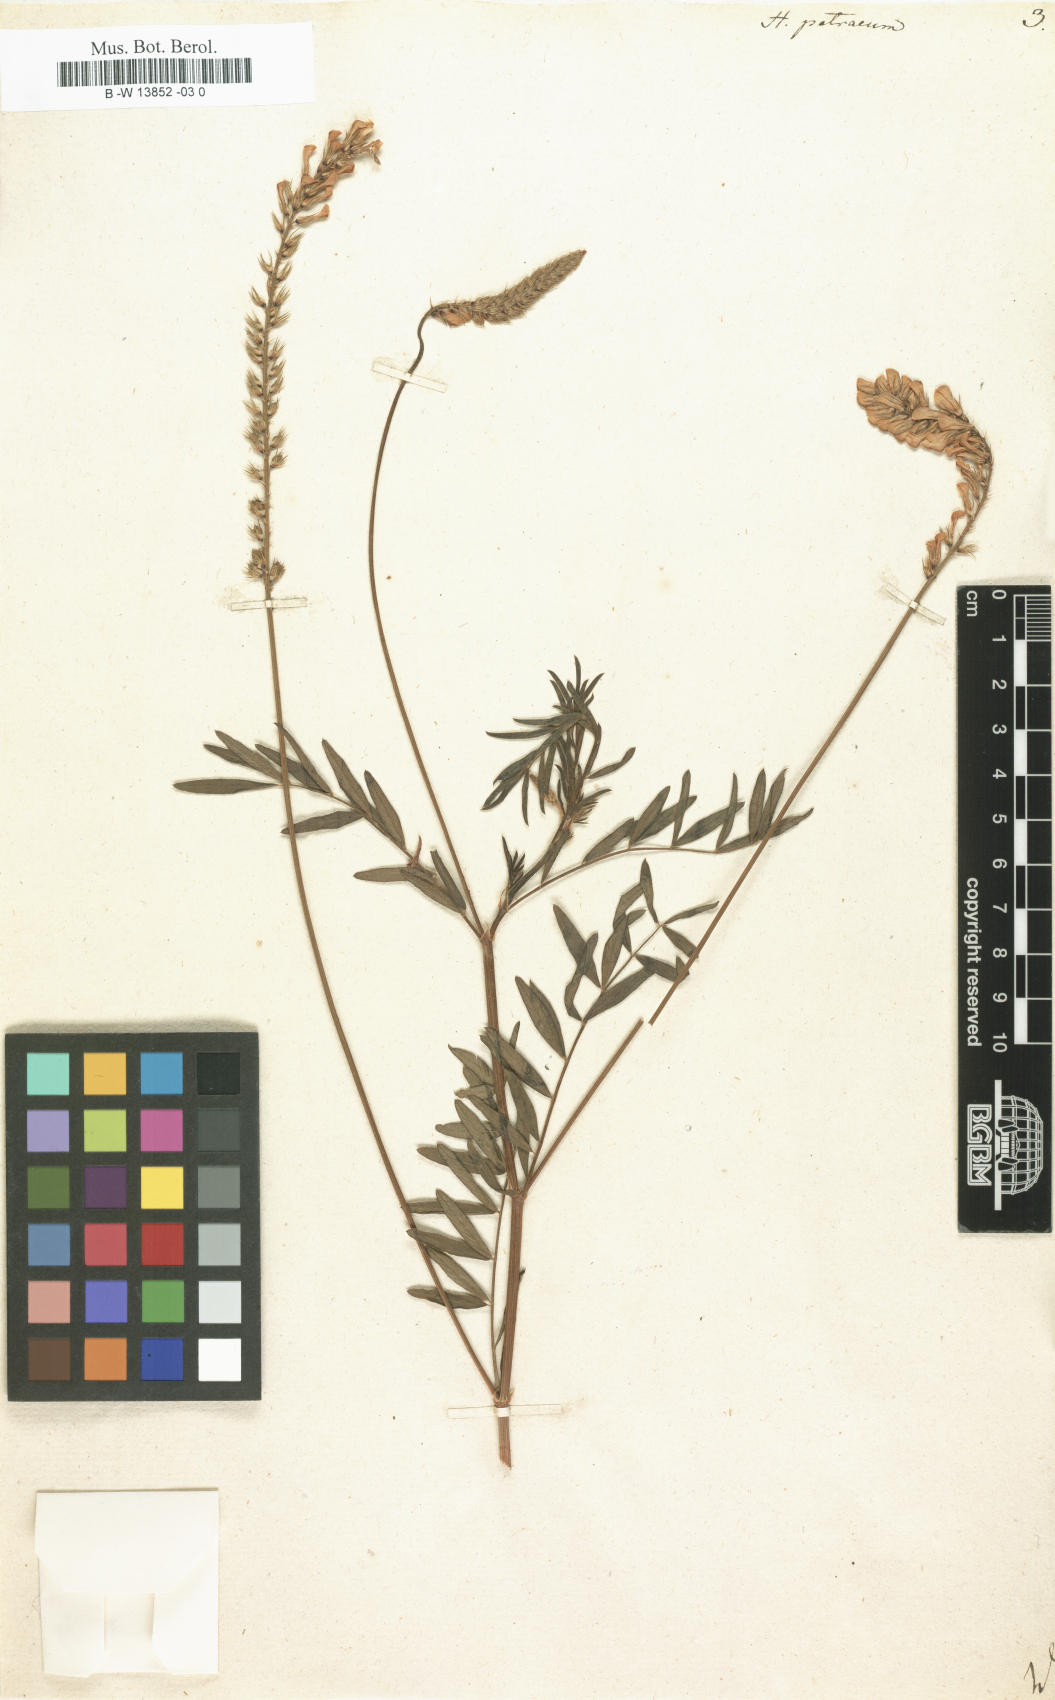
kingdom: Plantae
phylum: Tracheophyta
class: Magnoliopsida
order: Fabales
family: Fabaceae
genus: Onobrychis
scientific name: Onobrychis petraea
